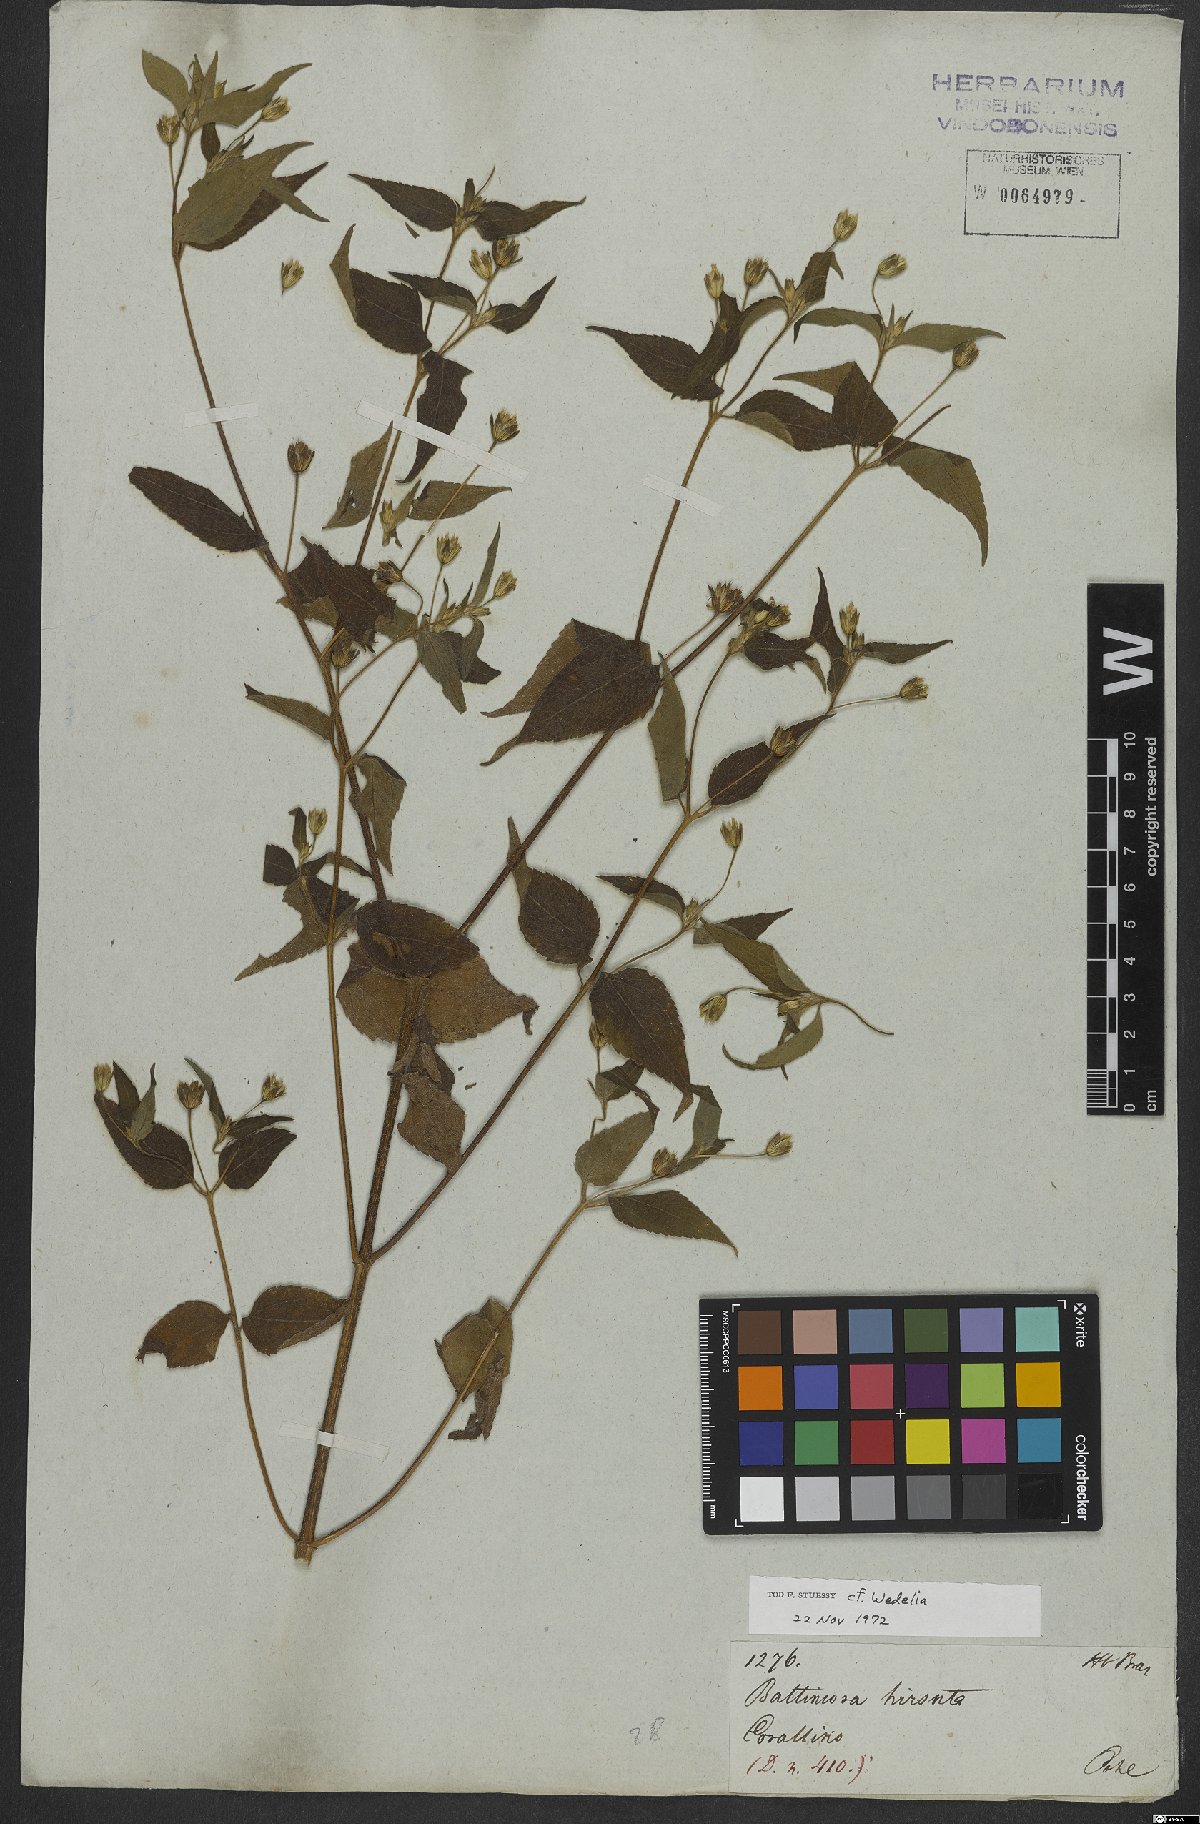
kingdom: Plantae
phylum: Tracheophyta
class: Magnoliopsida
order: Asterales
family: Asteraceae
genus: Wedelia
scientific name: Wedelia
